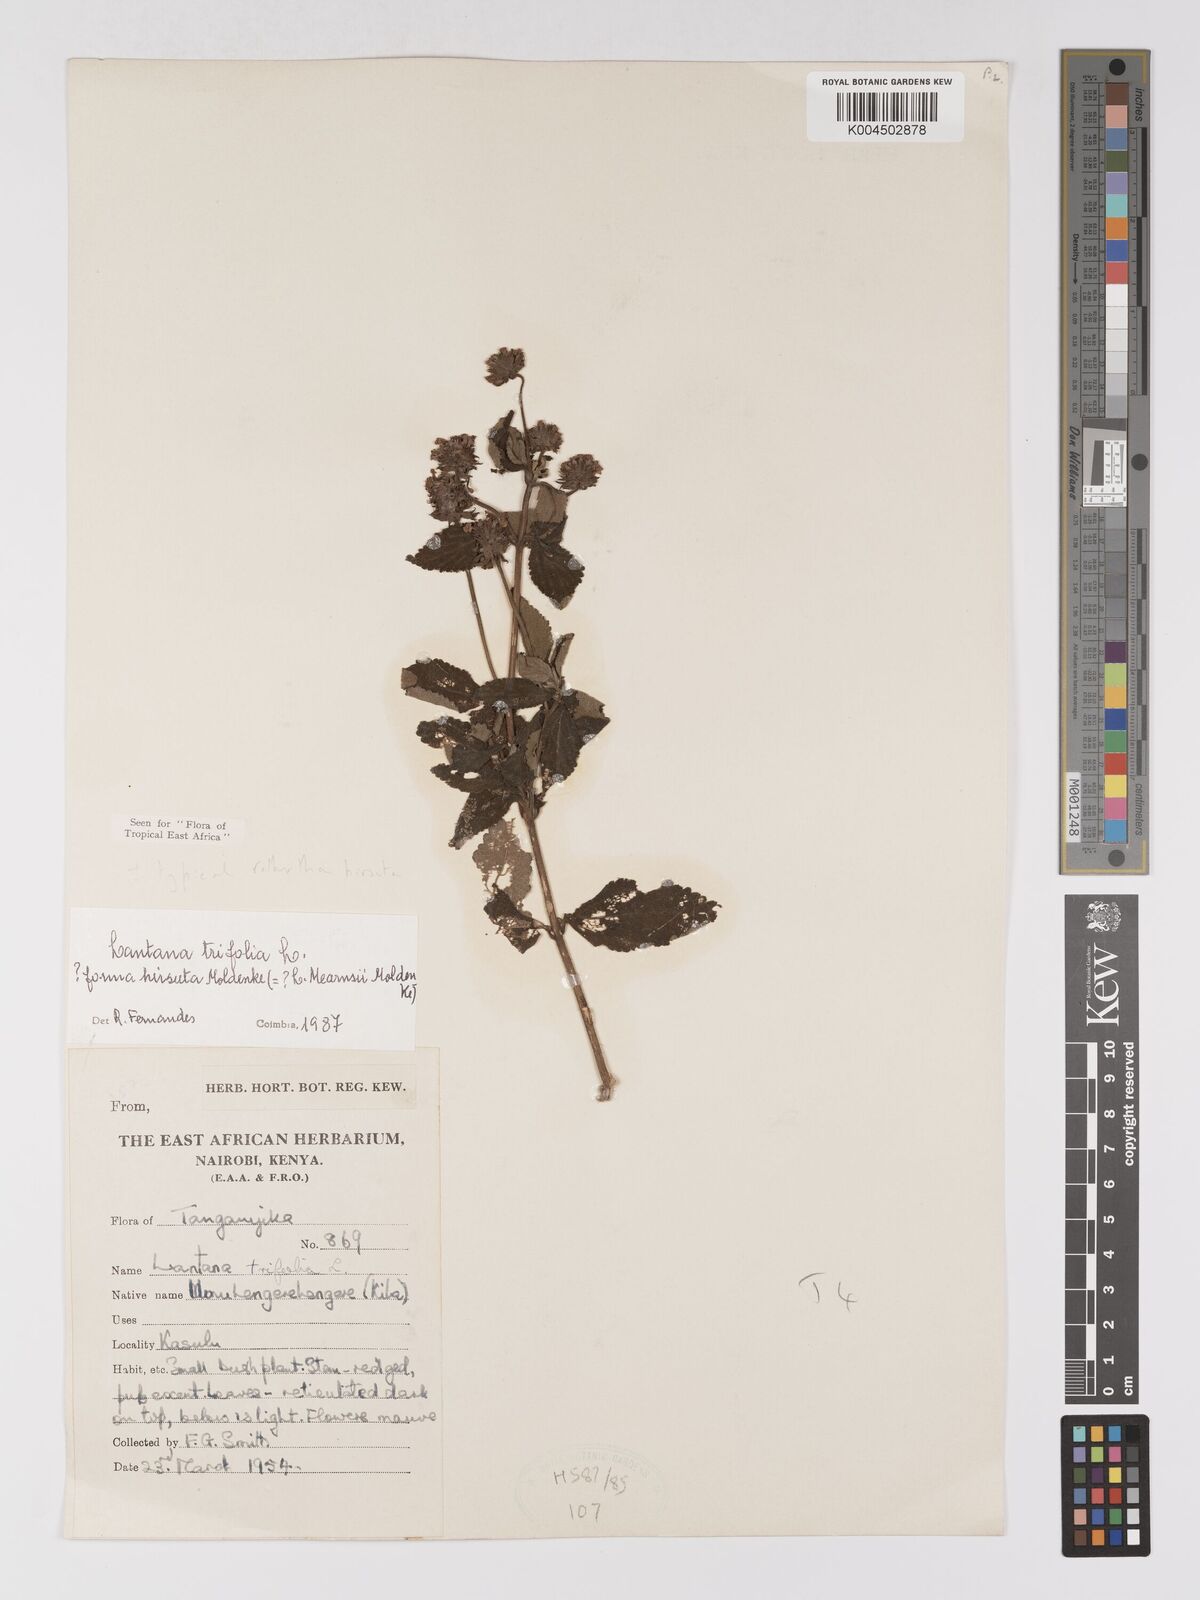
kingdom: Plantae
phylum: Tracheophyta
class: Magnoliopsida
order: Lamiales
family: Verbenaceae
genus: Lantana
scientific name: Lantana trifolia
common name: Sweet-sage
